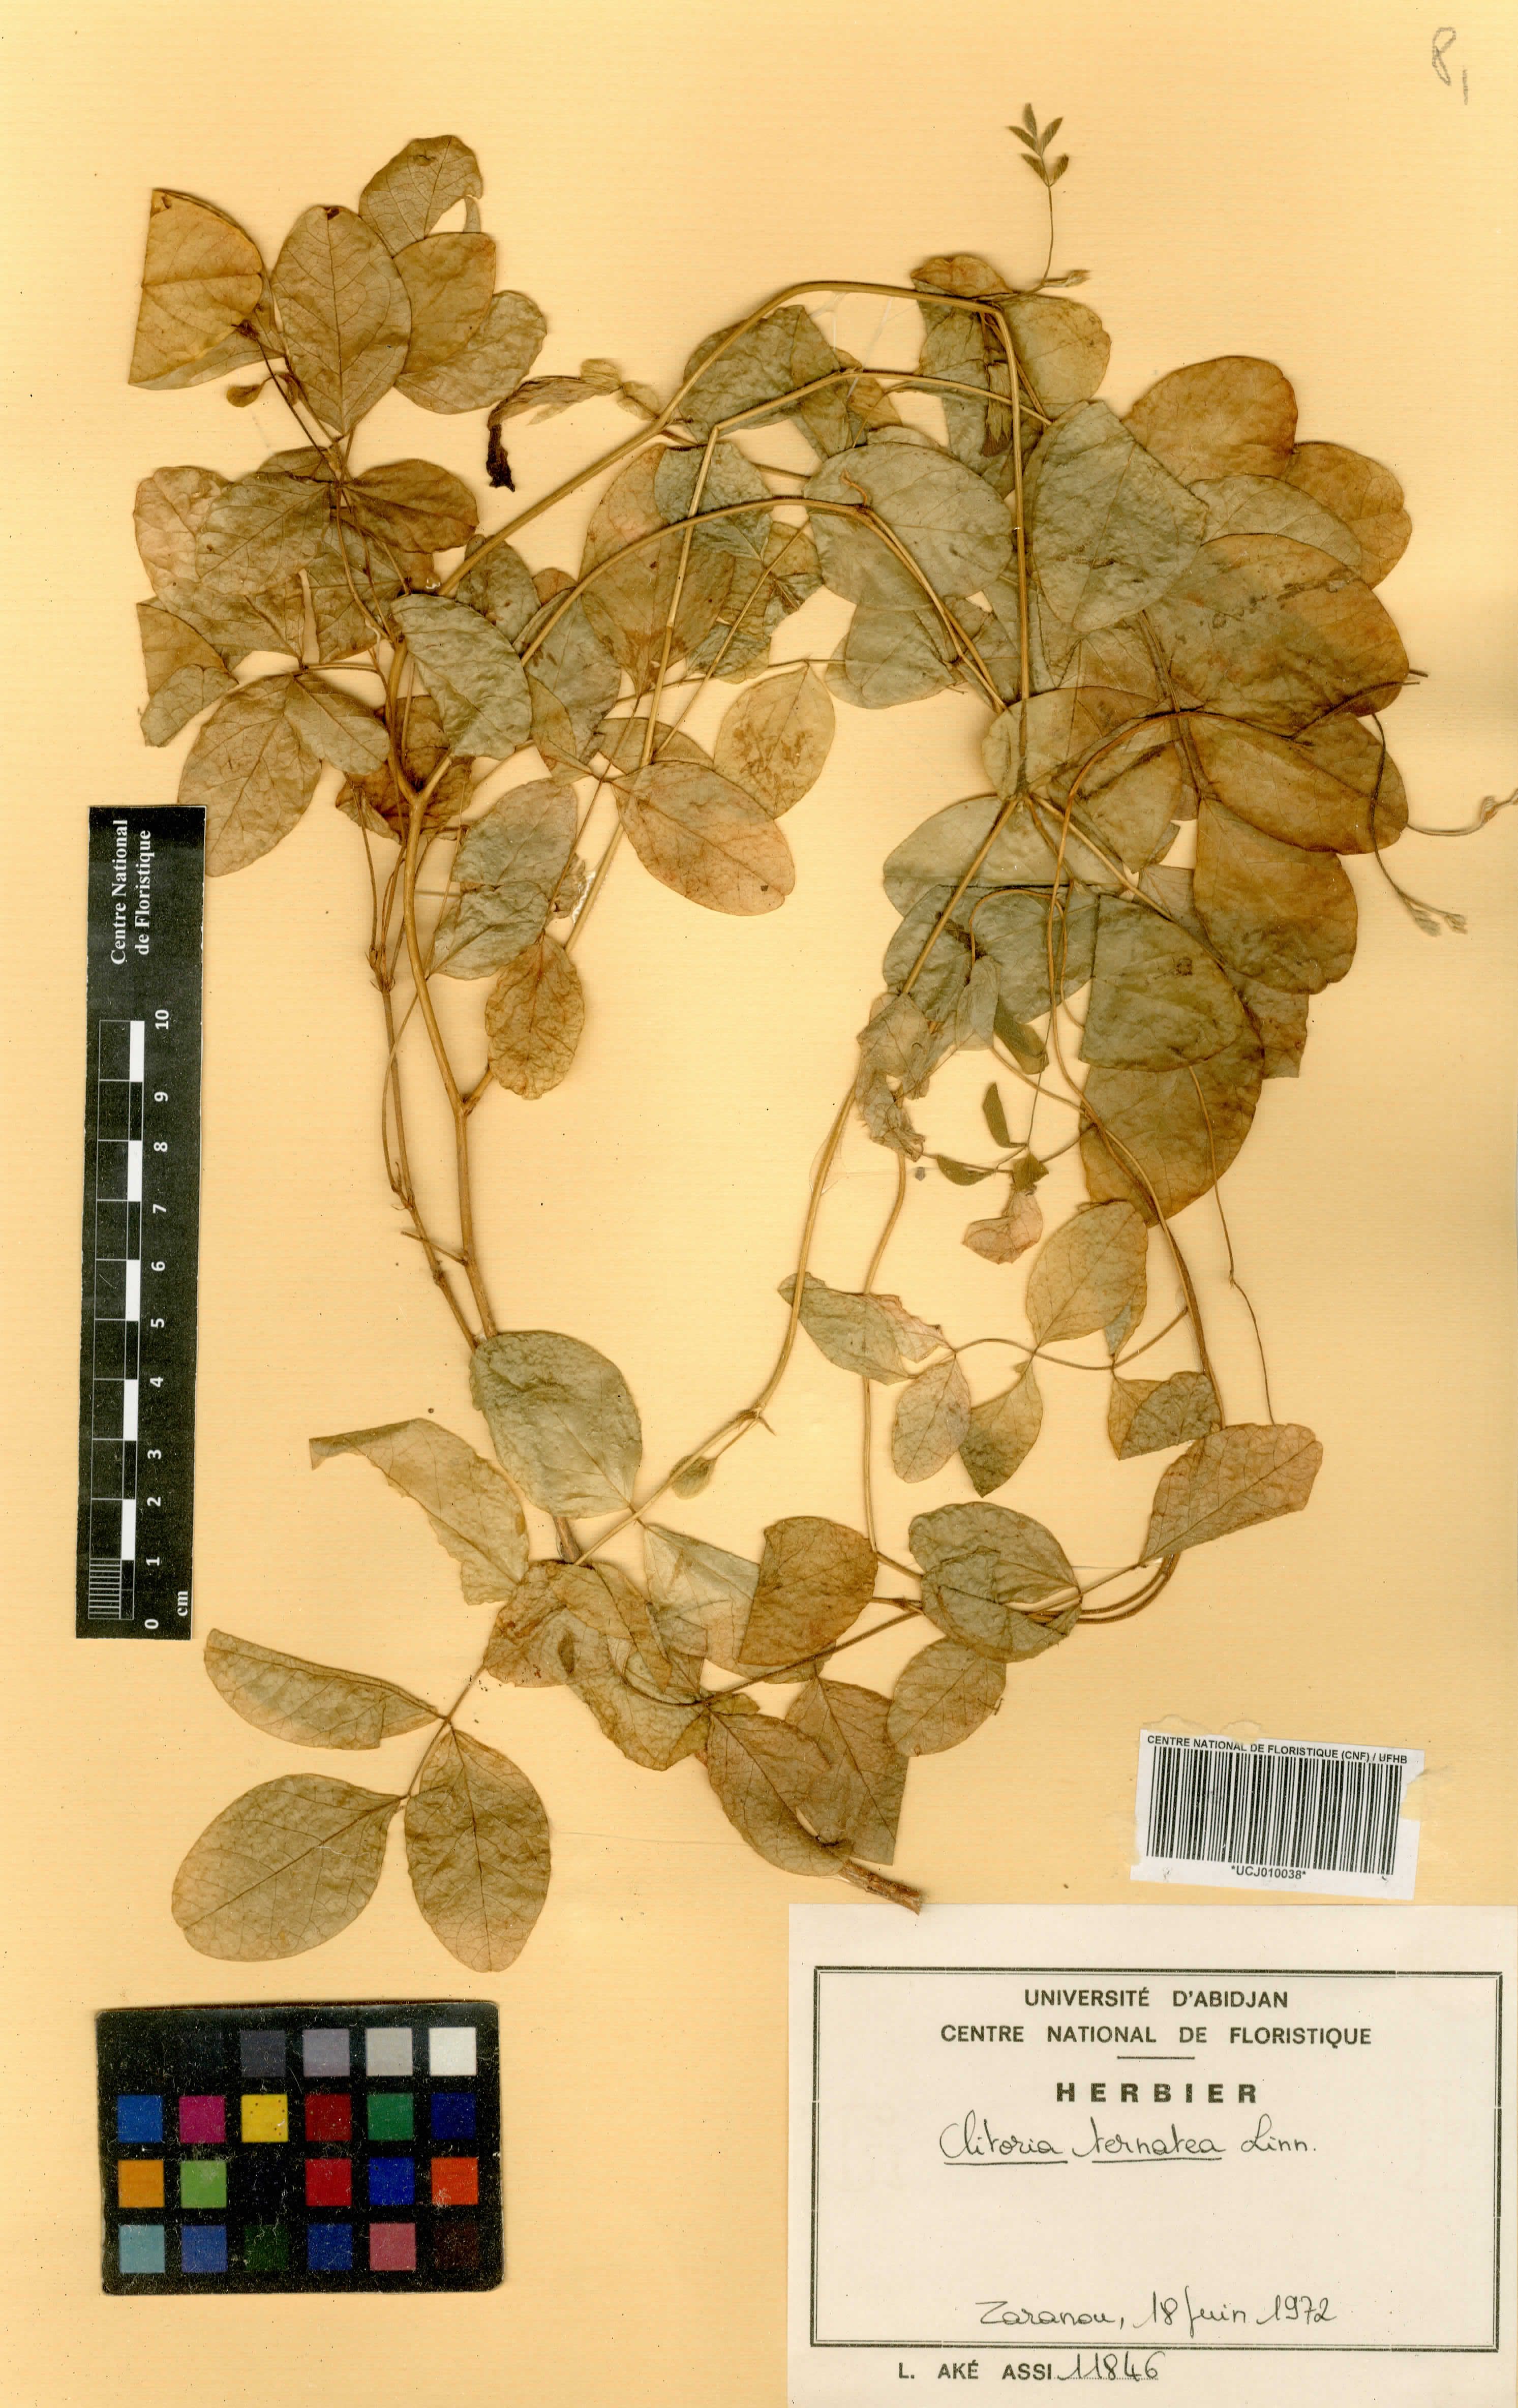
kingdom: Plantae
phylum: Tracheophyta
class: Magnoliopsida
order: Fabales
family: Fabaceae
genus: Clitoria
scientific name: Clitoria ternatea
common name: Asian pigeonwings
